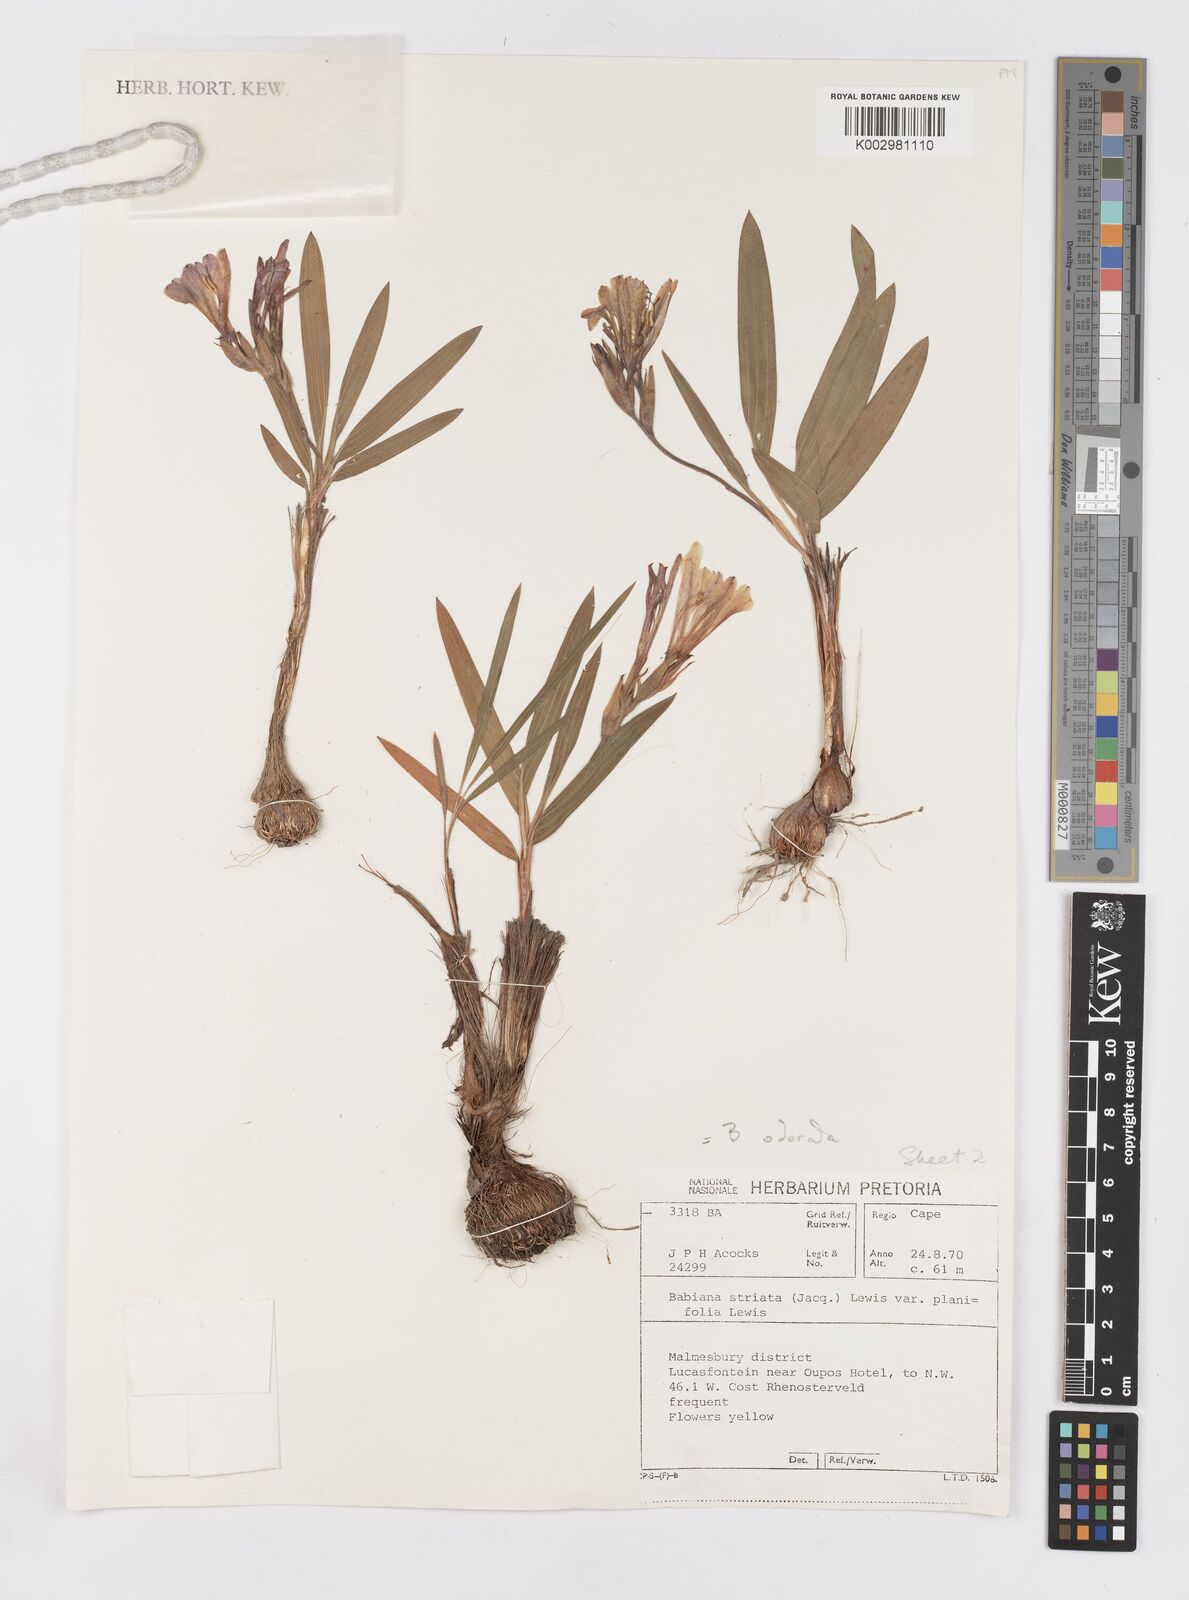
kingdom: Plantae
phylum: Tracheophyta
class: Liliopsida
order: Asparagales
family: Iridaceae
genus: Babiana
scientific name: Babiana odorata
